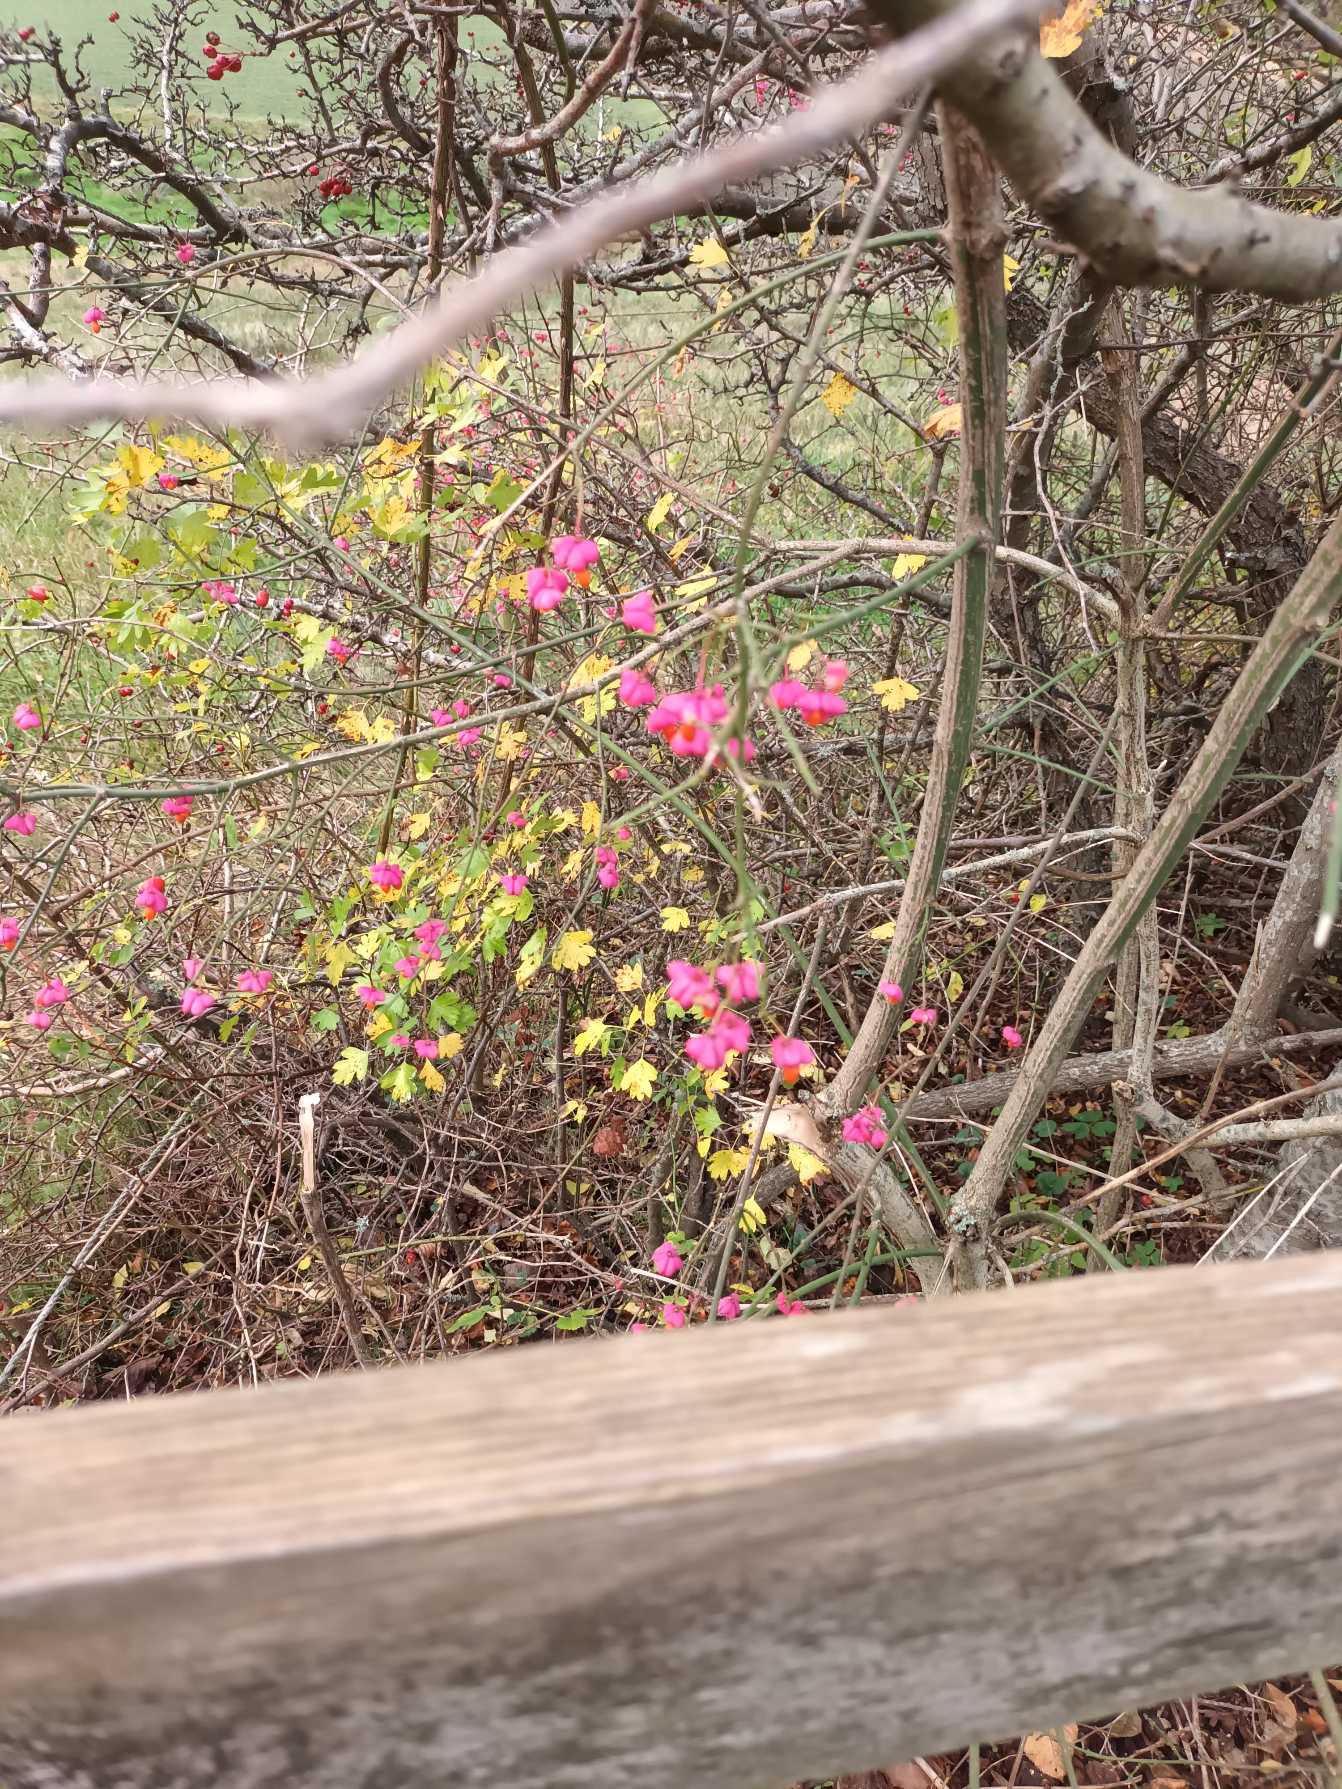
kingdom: Plantae
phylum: Tracheophyta
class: Magnoliopsida
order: Celastrales
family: Celastraceae
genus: Euonymus
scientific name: Euonymus europaeus
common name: Benved
